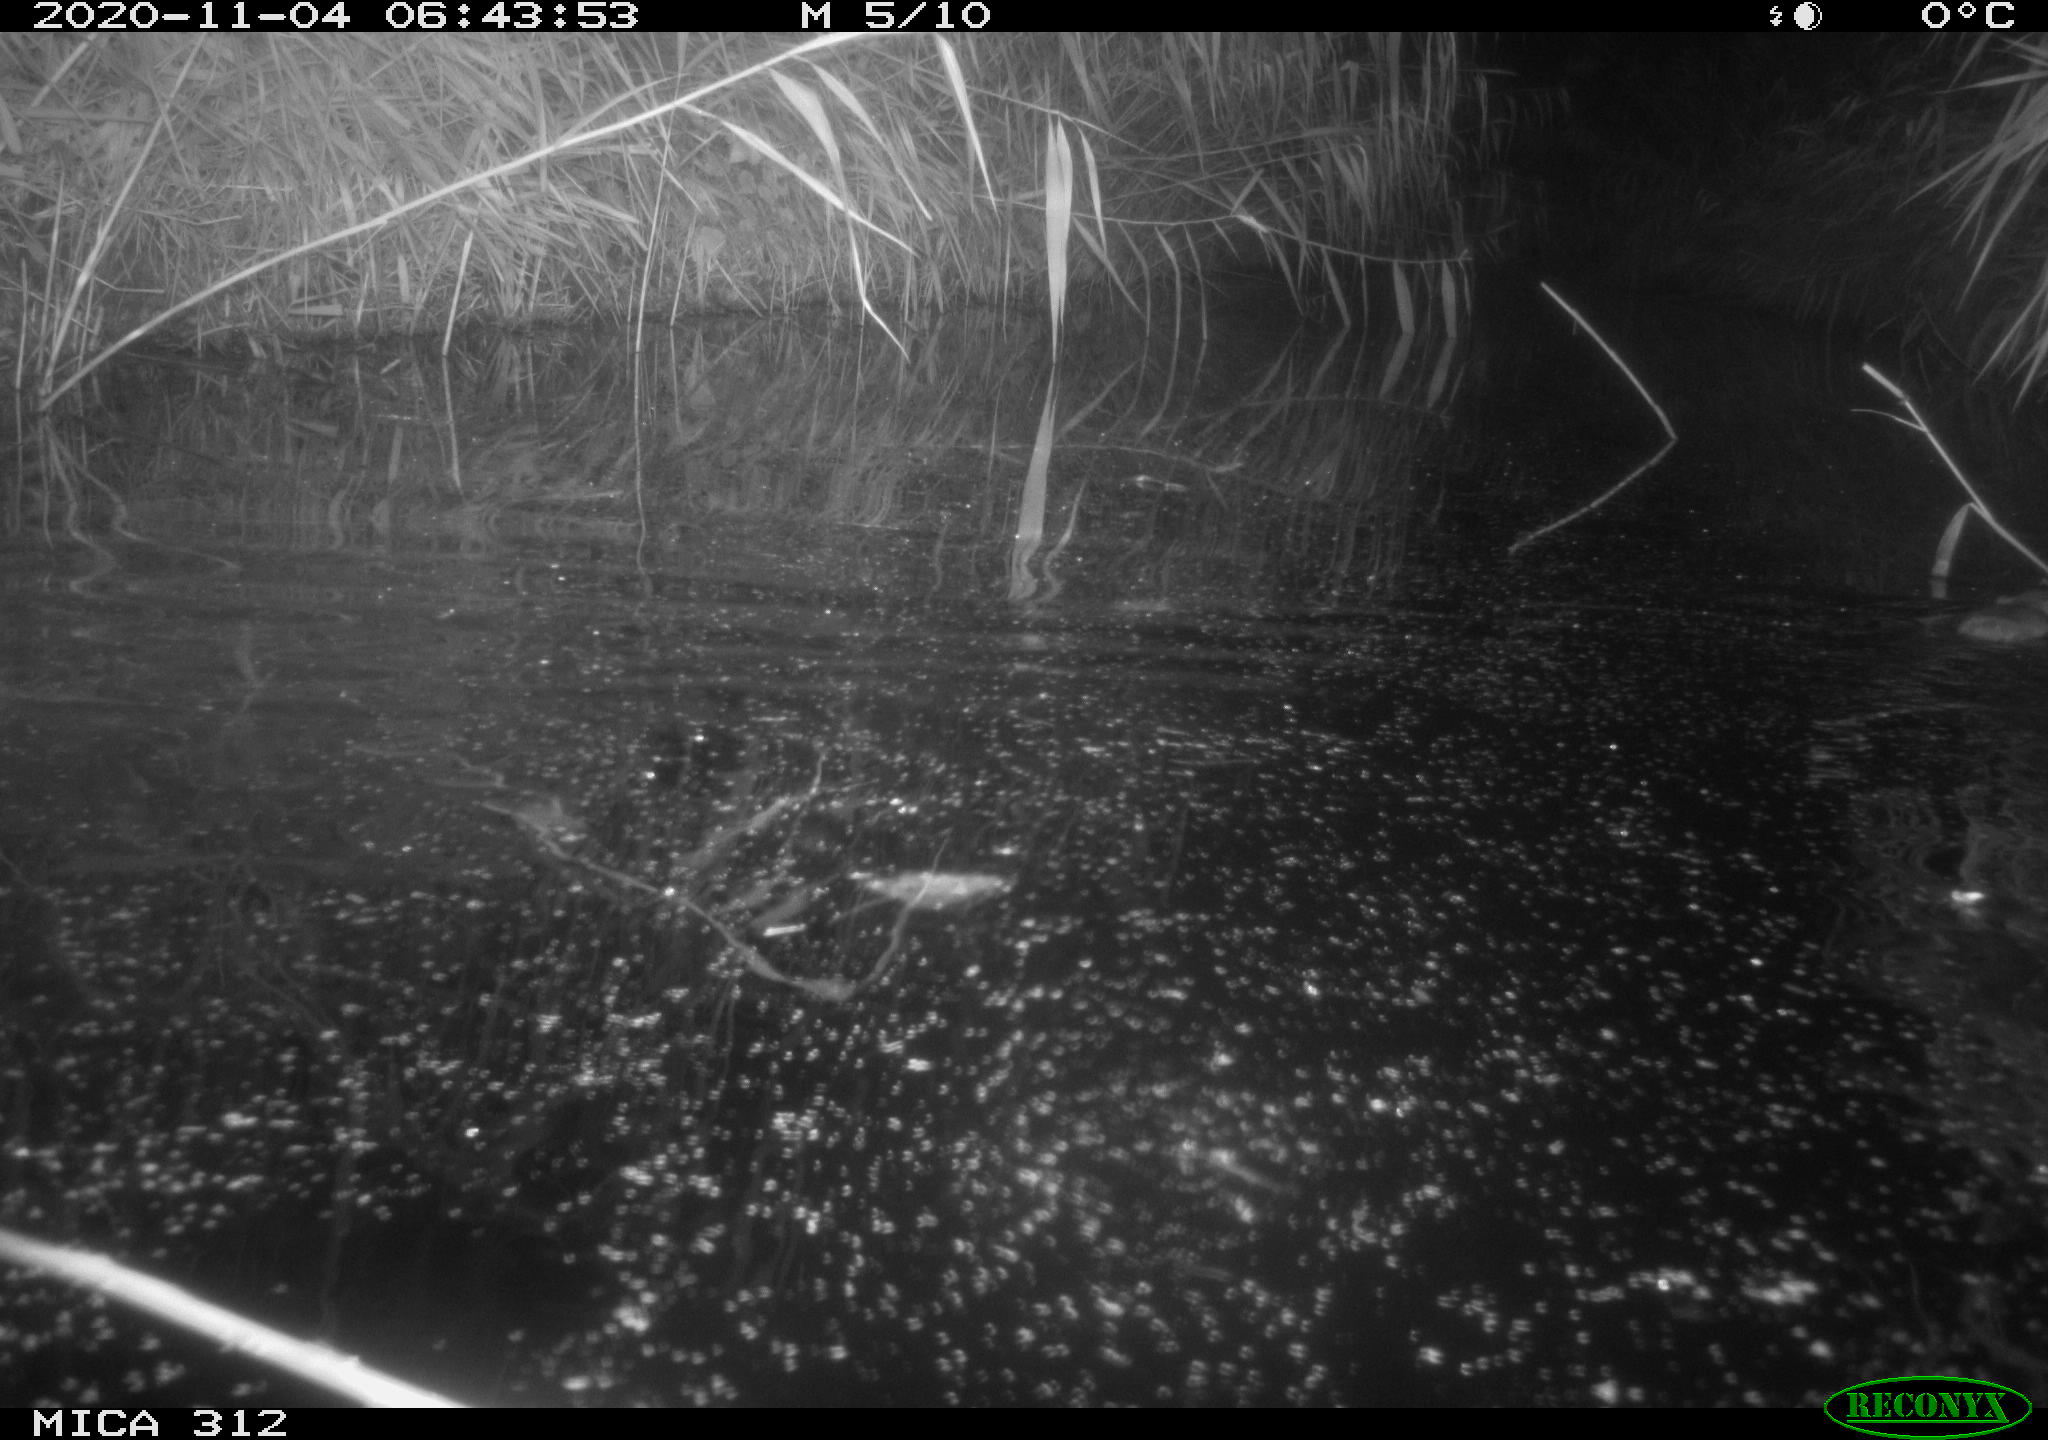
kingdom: Animalia
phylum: Chordata
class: Mammalia
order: Rodentia
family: Muridae
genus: Rattus
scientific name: Rattus norvegicus
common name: Brown rat
